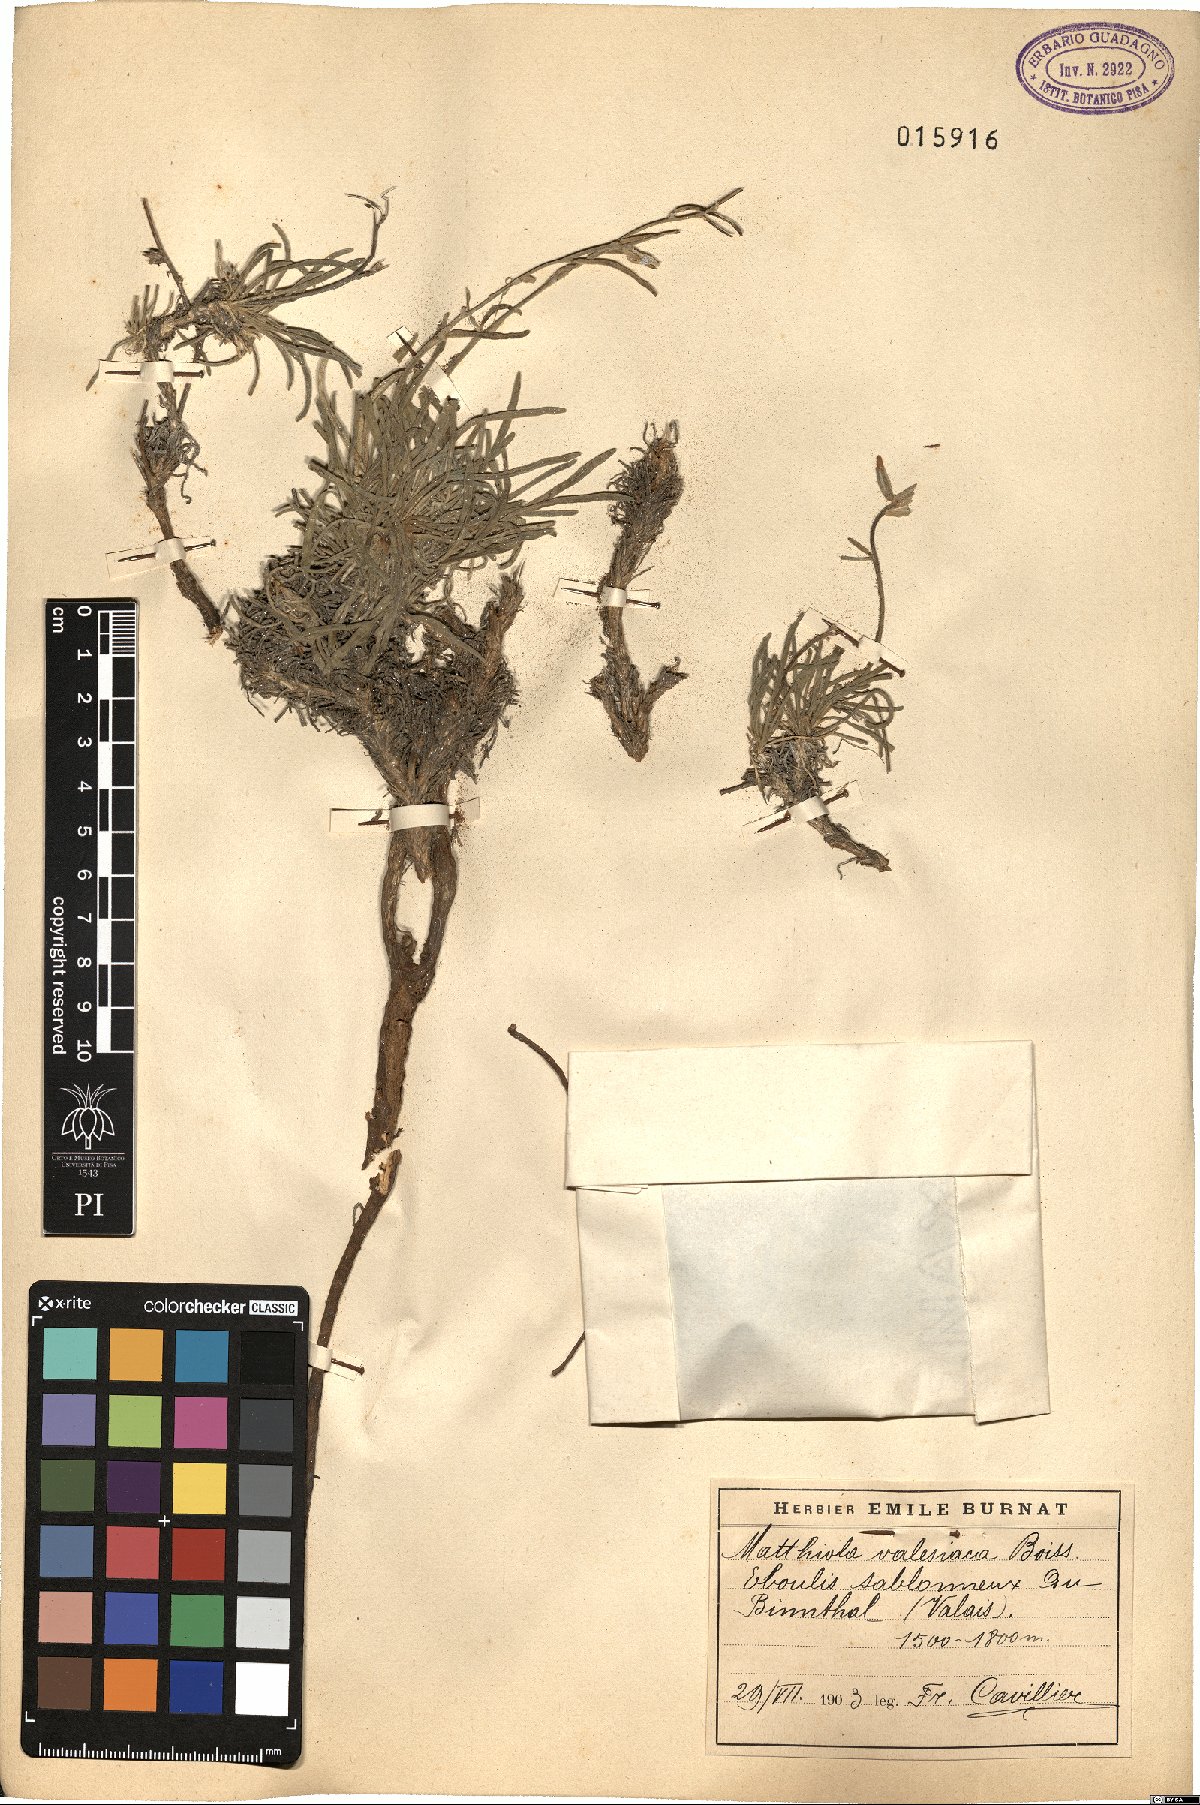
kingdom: Plantae
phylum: Tracheophyta
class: Magnoliopsida
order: Brassicales
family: Brassicaceae
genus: Matthiola
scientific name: Matthiola fruticulosa
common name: Sad stock
